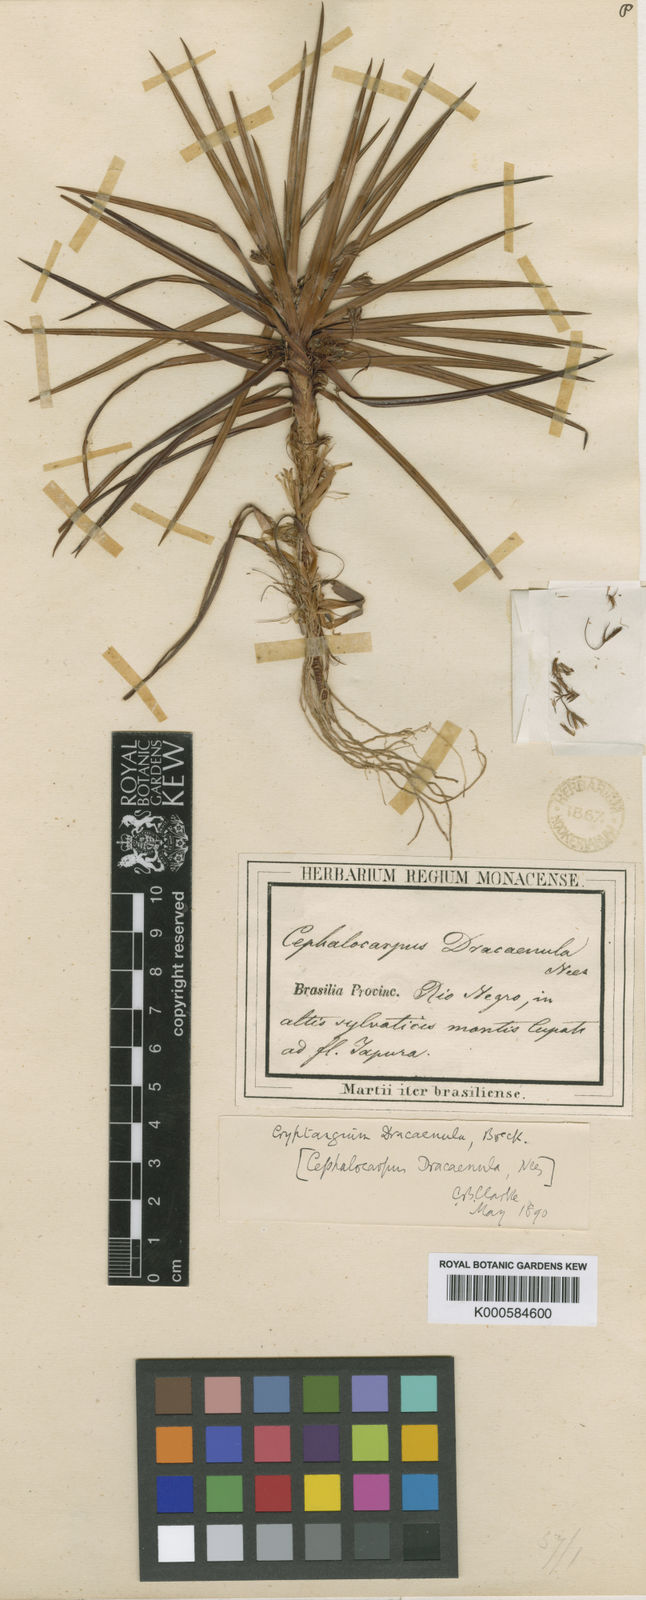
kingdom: Plantae
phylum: Tracheophyta
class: Liliopsida
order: Poales
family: Cyperaceae
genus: Cephalocarpus
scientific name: Cephalocarpus dracaenula
